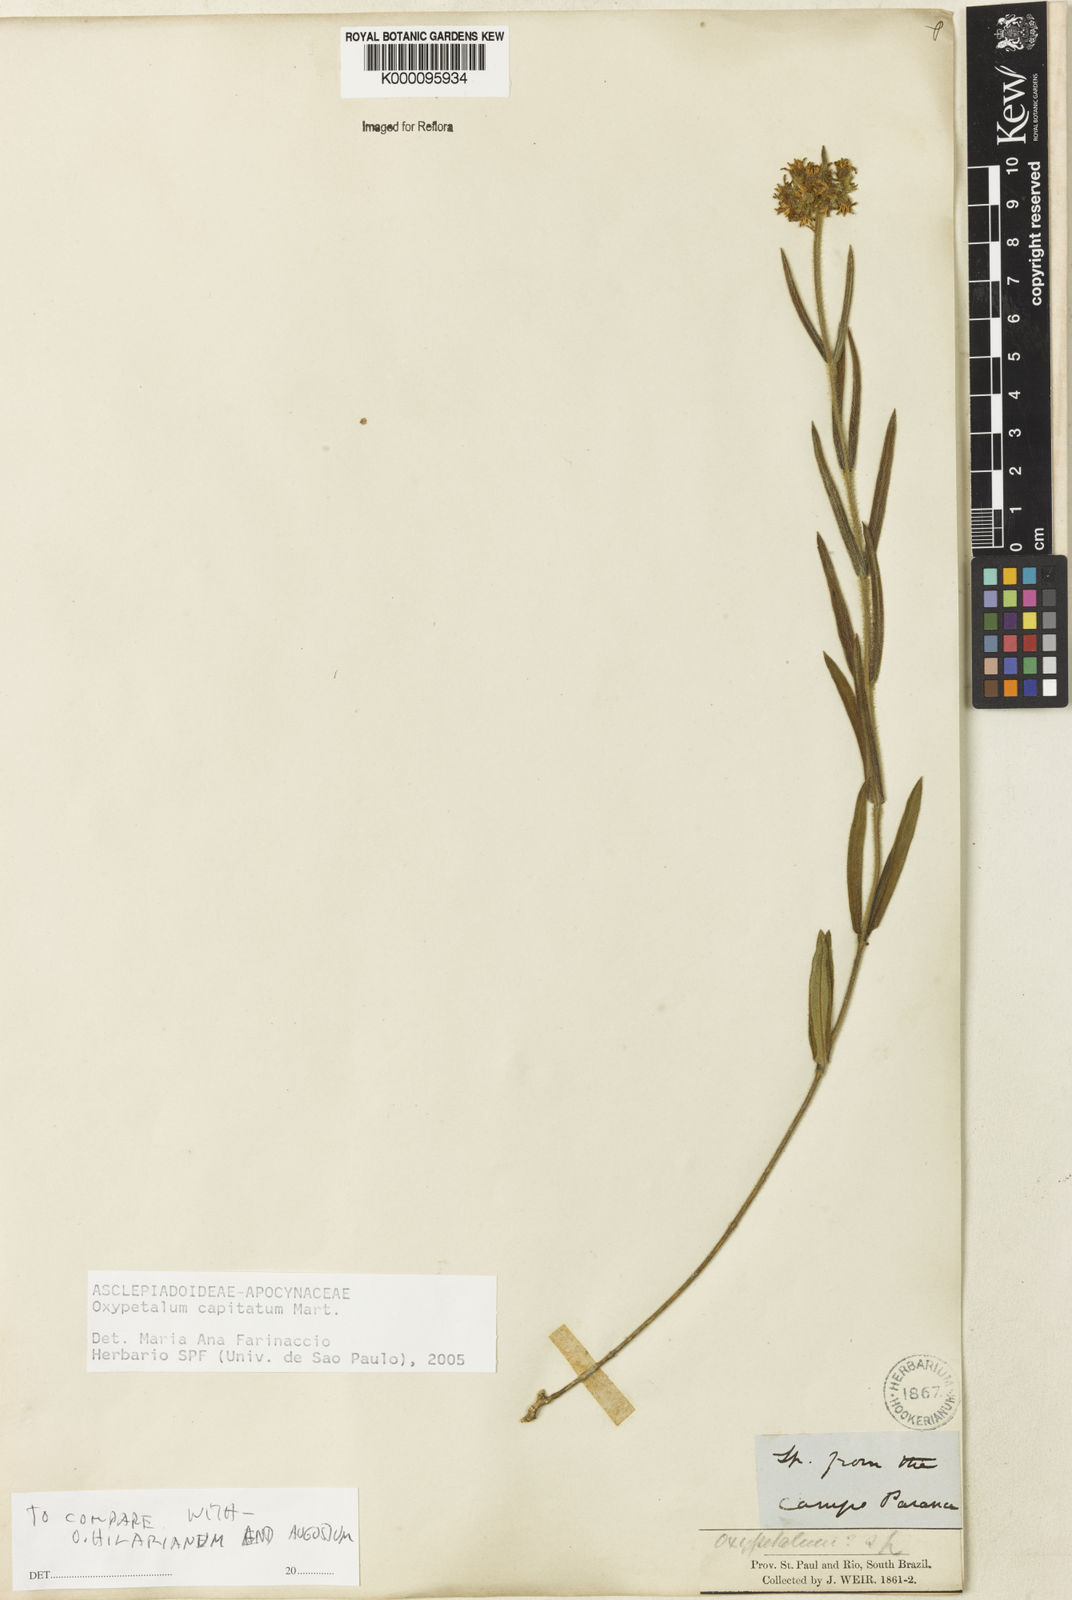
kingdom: Plantae
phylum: Tracheophyta
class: Magnoliopsida
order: Gentianales
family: Apocynaceae
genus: Oxypetalum
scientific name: Oxypetalum capitatum
